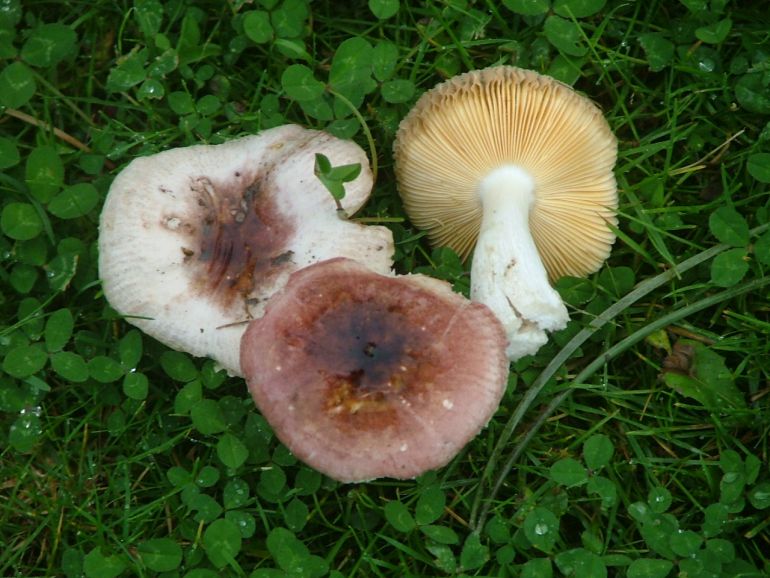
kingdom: Fungi
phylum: Basidiomycota
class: Agaricomycetes
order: Russulales
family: Russulaceae
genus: Russula
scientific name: Russula cessans
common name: fyrre-skørhat
